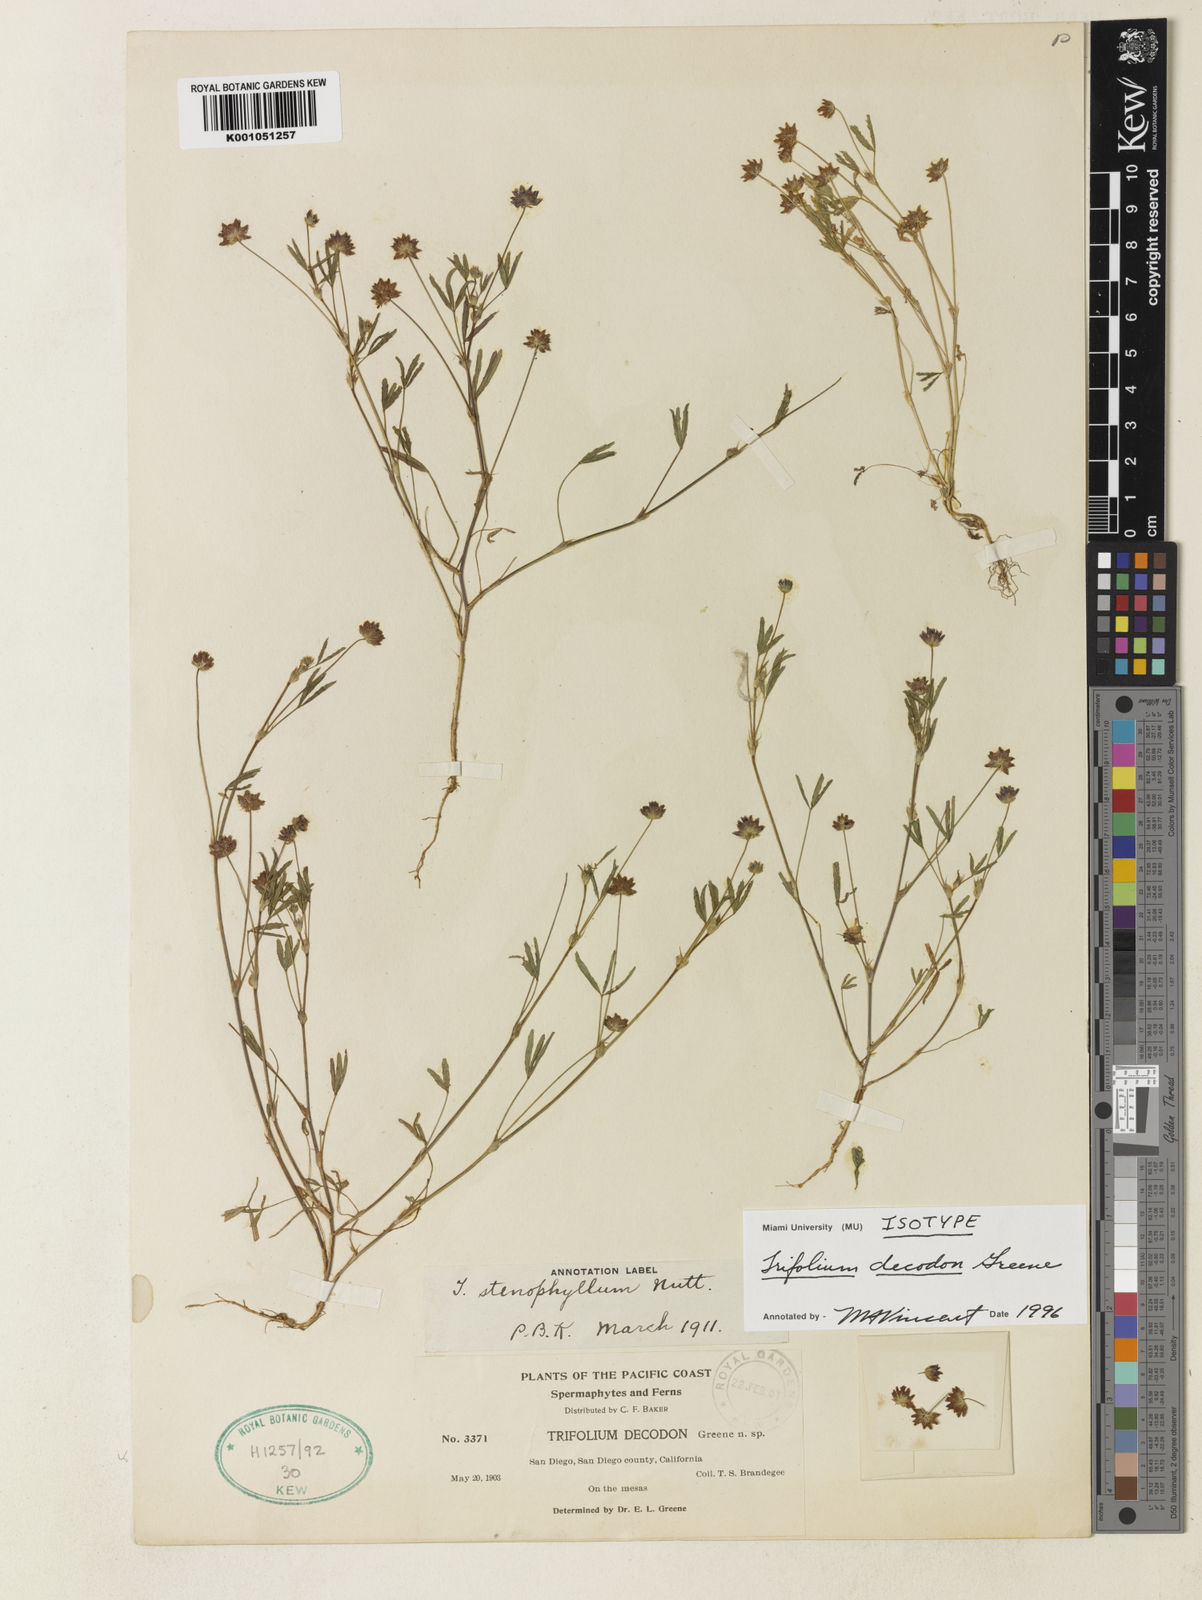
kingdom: Plantae
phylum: Tracheophyta
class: Magnoliopsida
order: Fabales
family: Fabaceae
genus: Trifolium
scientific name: Trifolium depauperatum
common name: Poverty clover
